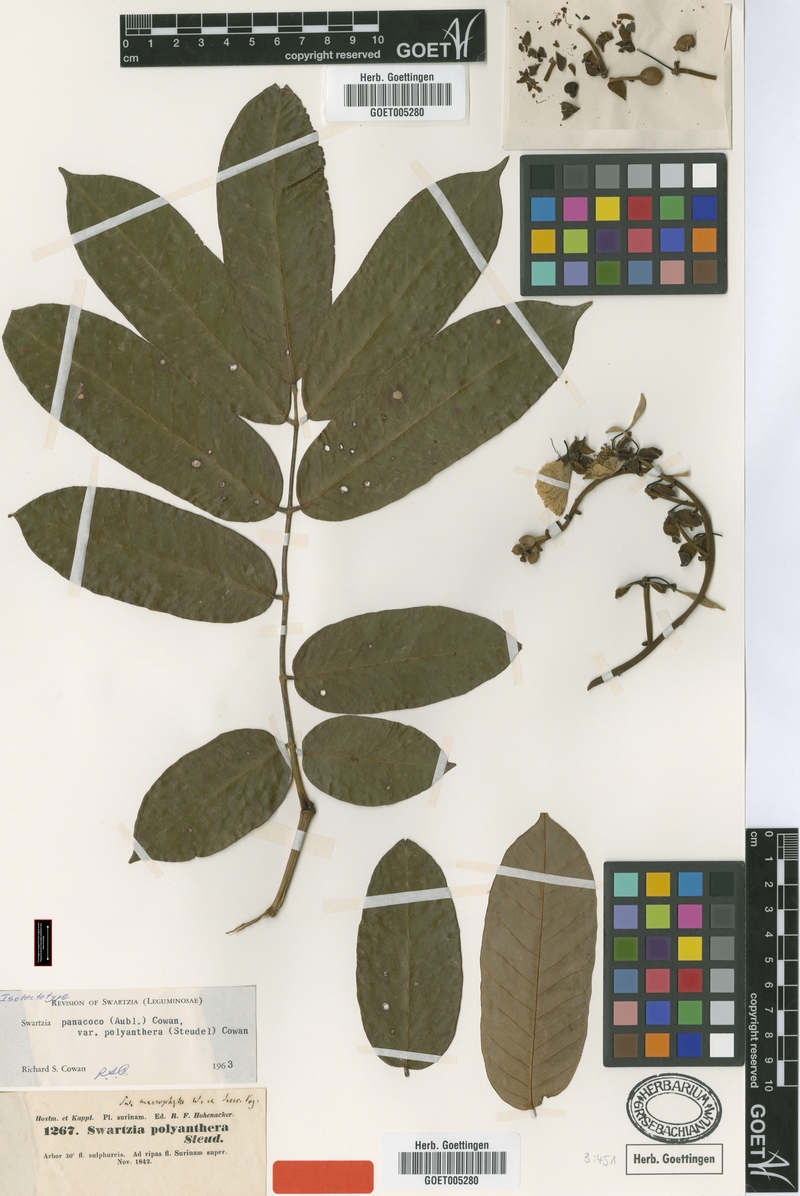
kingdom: Plantae
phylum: Tracheophyta
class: Magnoliopsida
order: Fabales
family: Fabaceae
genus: Swartzia
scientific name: Swartzia panacoco
